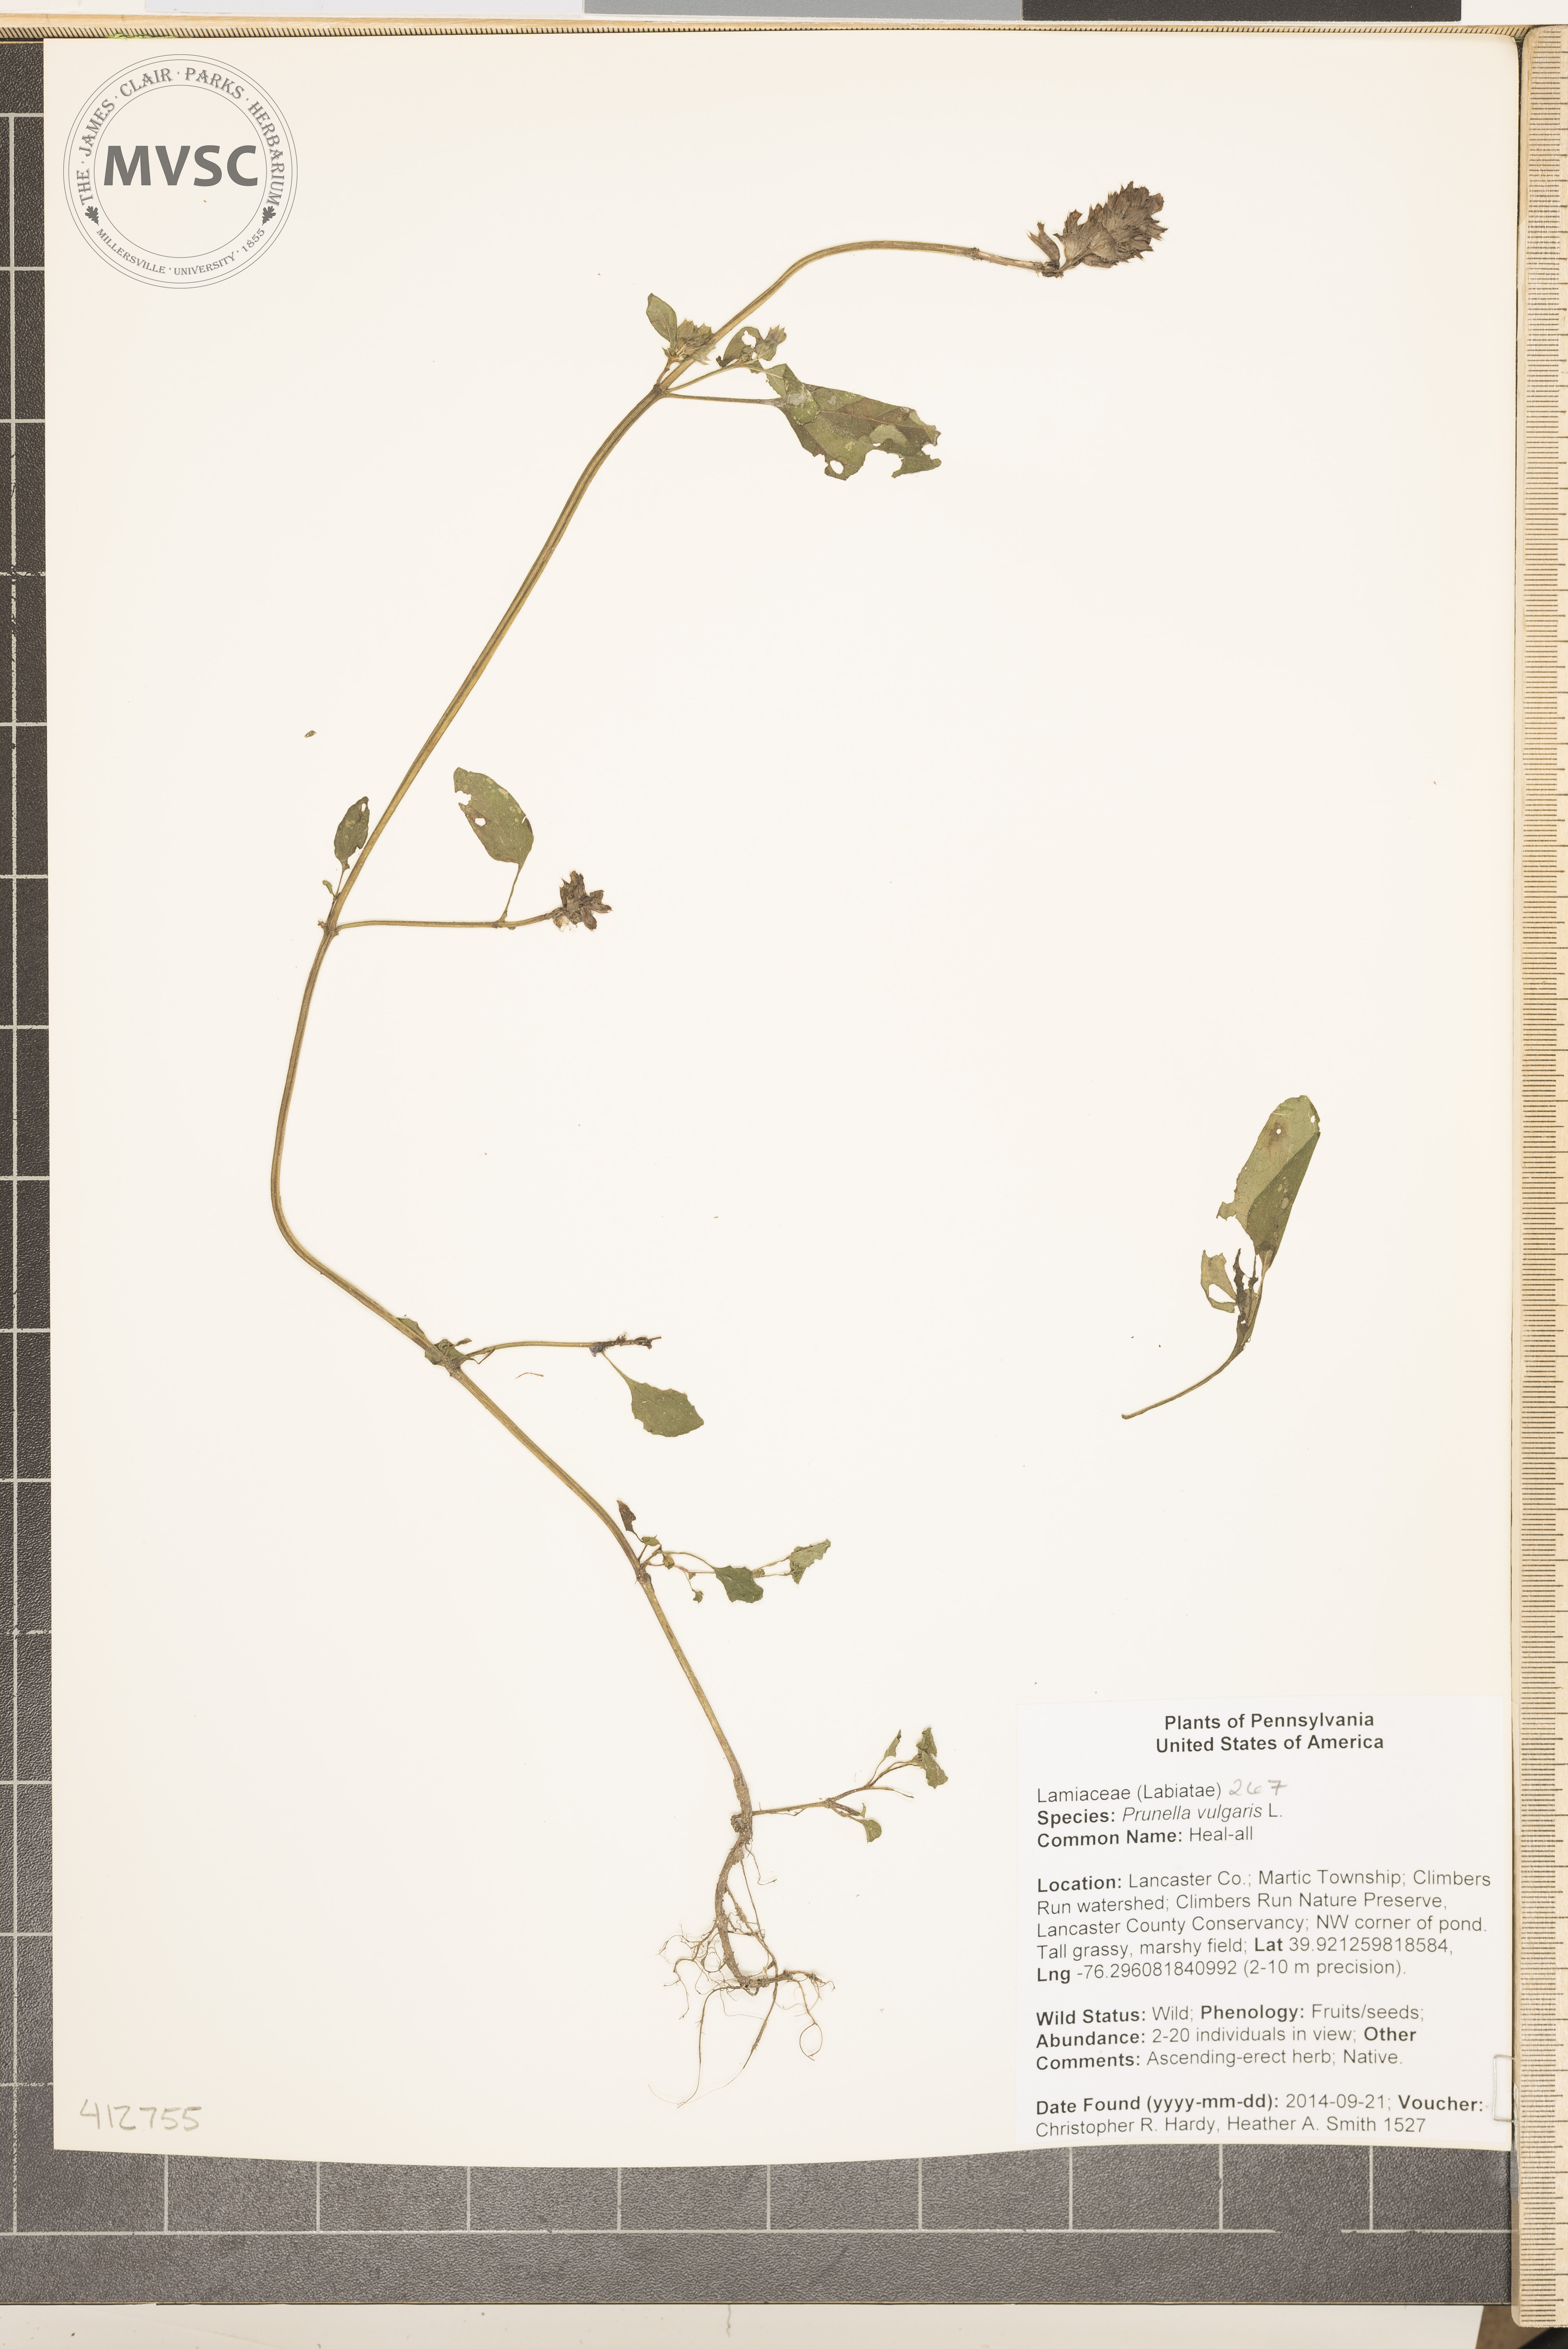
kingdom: Plantae
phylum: Tracheophyta
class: Magnoliopsida
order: Lamiales
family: Lamiaceae
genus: Prunella
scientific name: Prunella vulgaris
